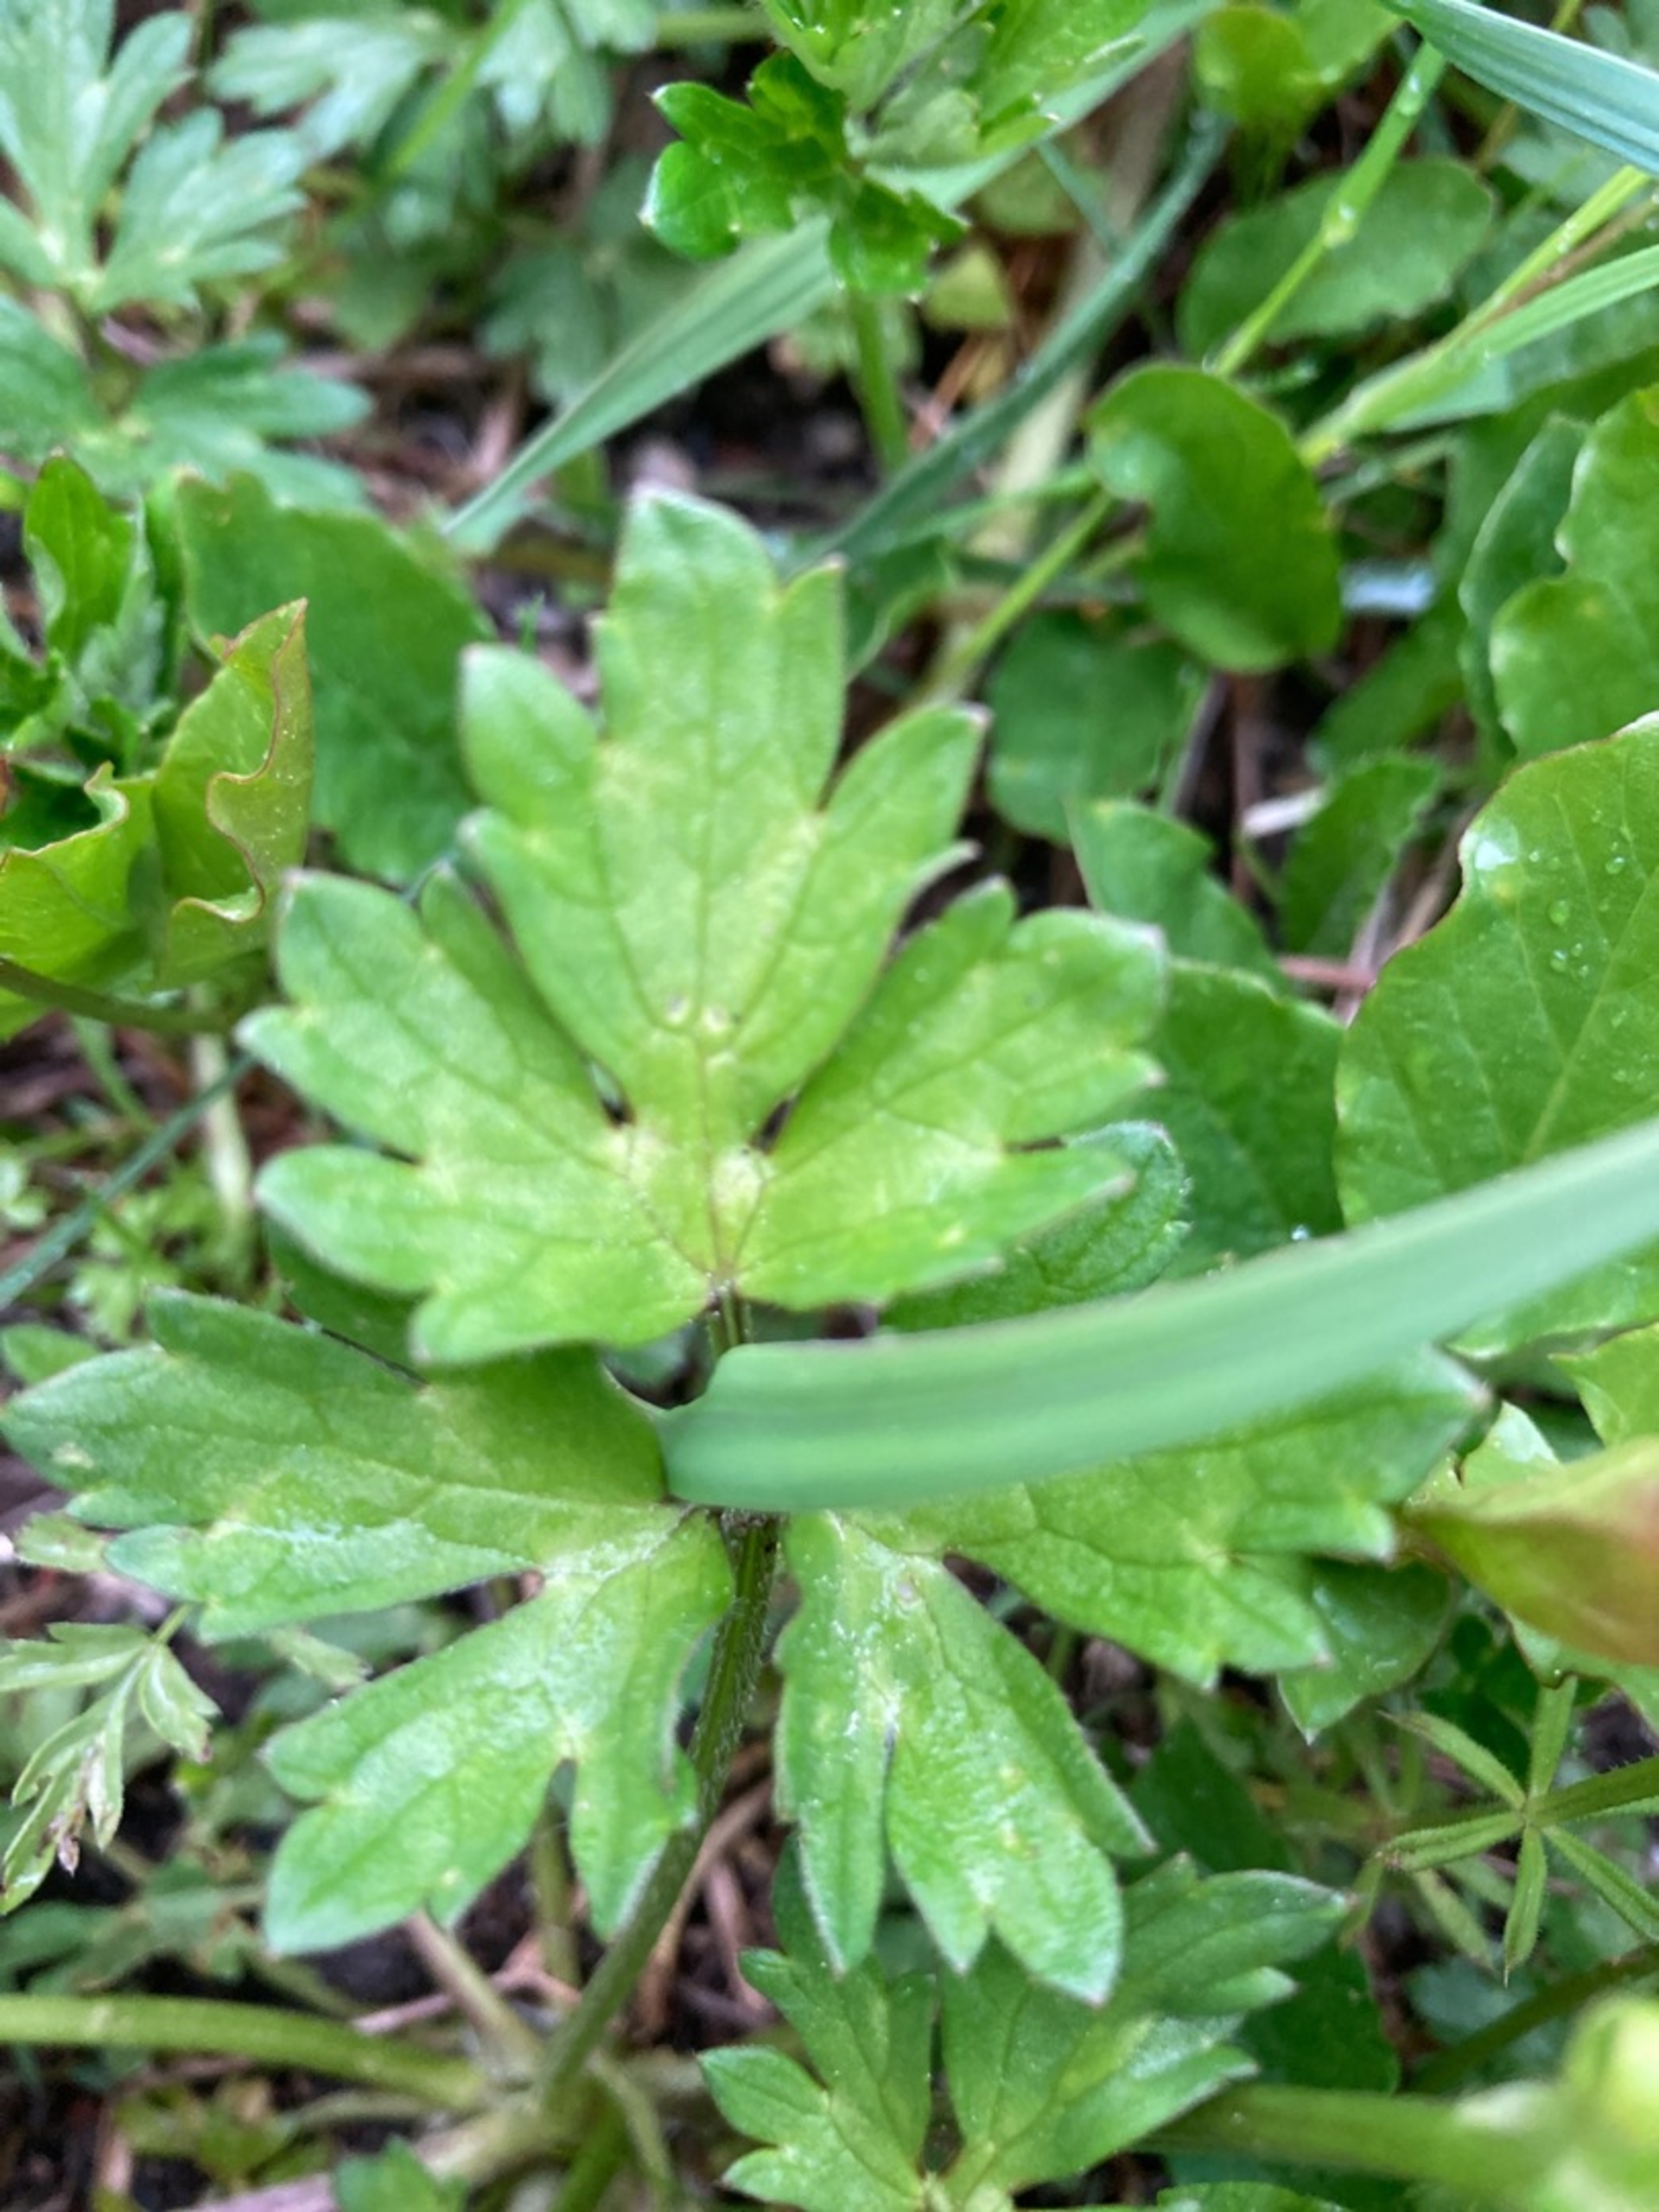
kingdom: Plantae
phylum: Tracheophyta
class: Magnoliopsida
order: Ranunculales
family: Ranunculaceae
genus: Ranunculus
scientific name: Ranunculus repens
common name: Lav ranunkel
